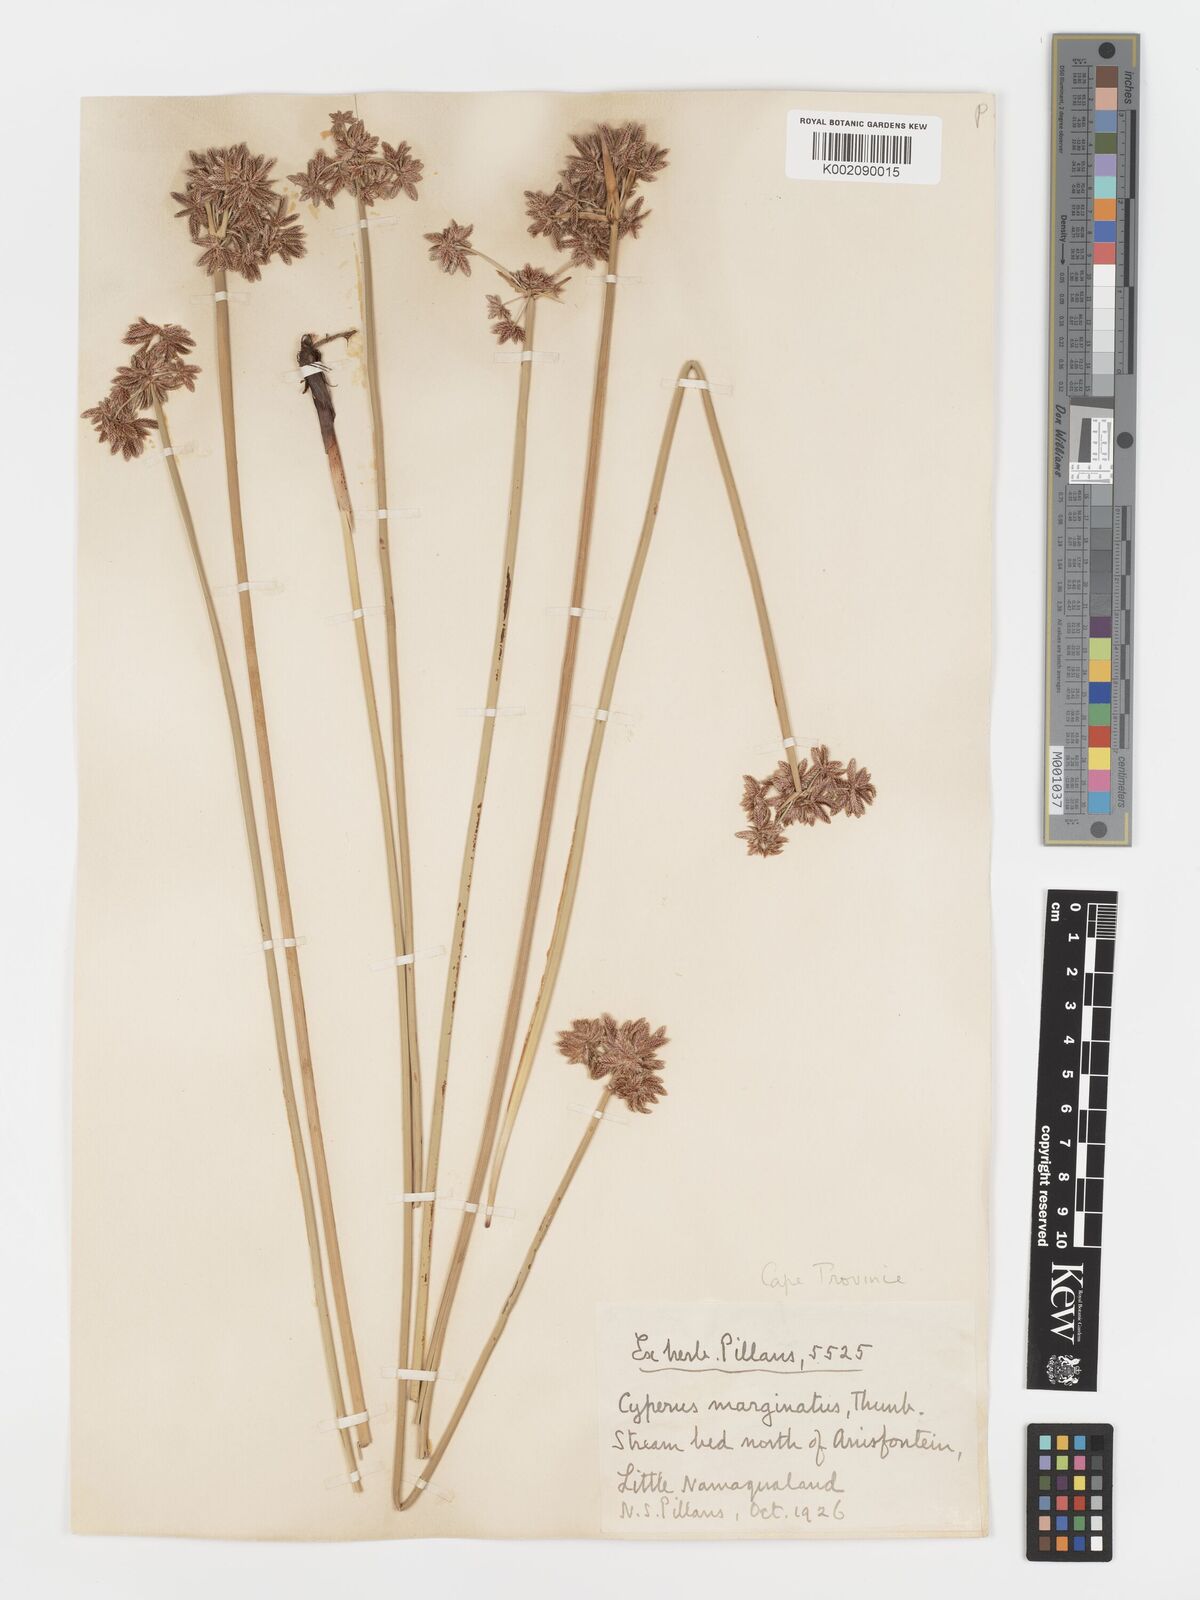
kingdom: Plantae
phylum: Tracheophyta
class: Liliopsida
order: Poales
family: Cyperaceae
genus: Cyperus
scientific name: Cyperus marginatus
